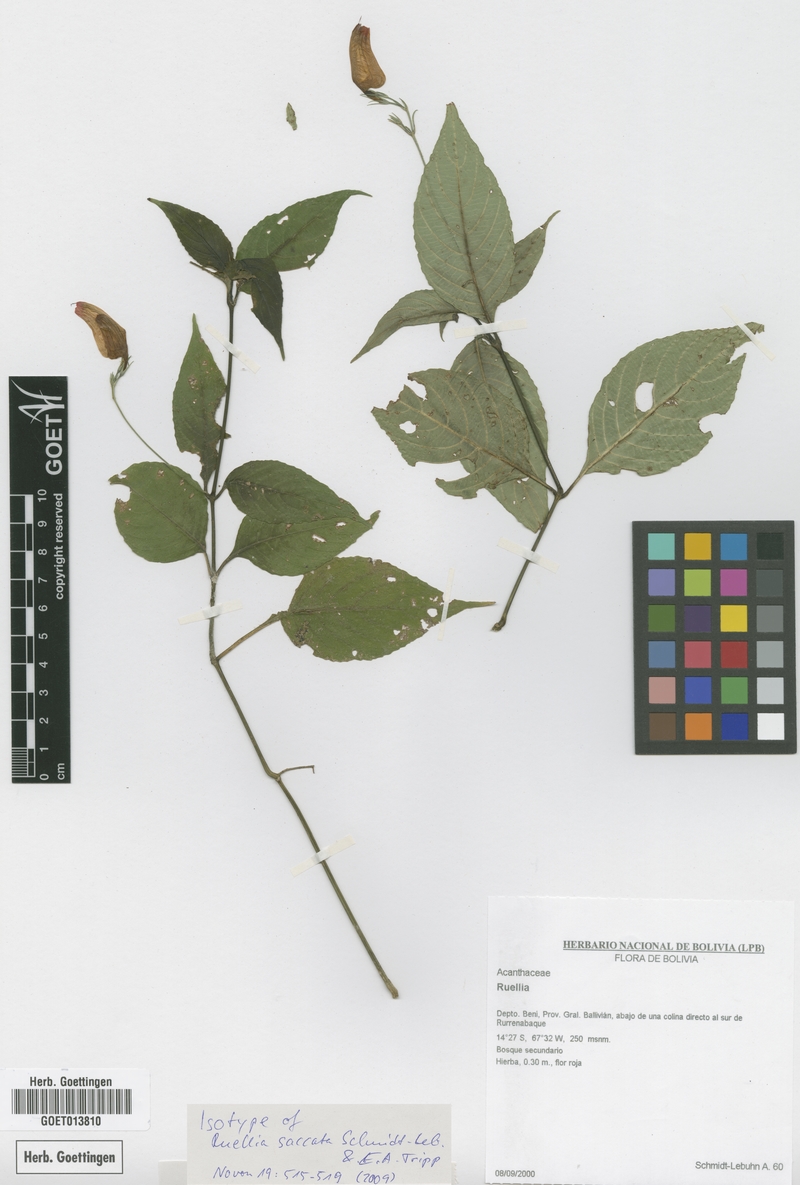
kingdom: Plantae
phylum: Tracheophyta
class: Magnoliopsida
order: Lamiales
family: Acanthaceae
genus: Ruellia
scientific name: Ruellia saccata
